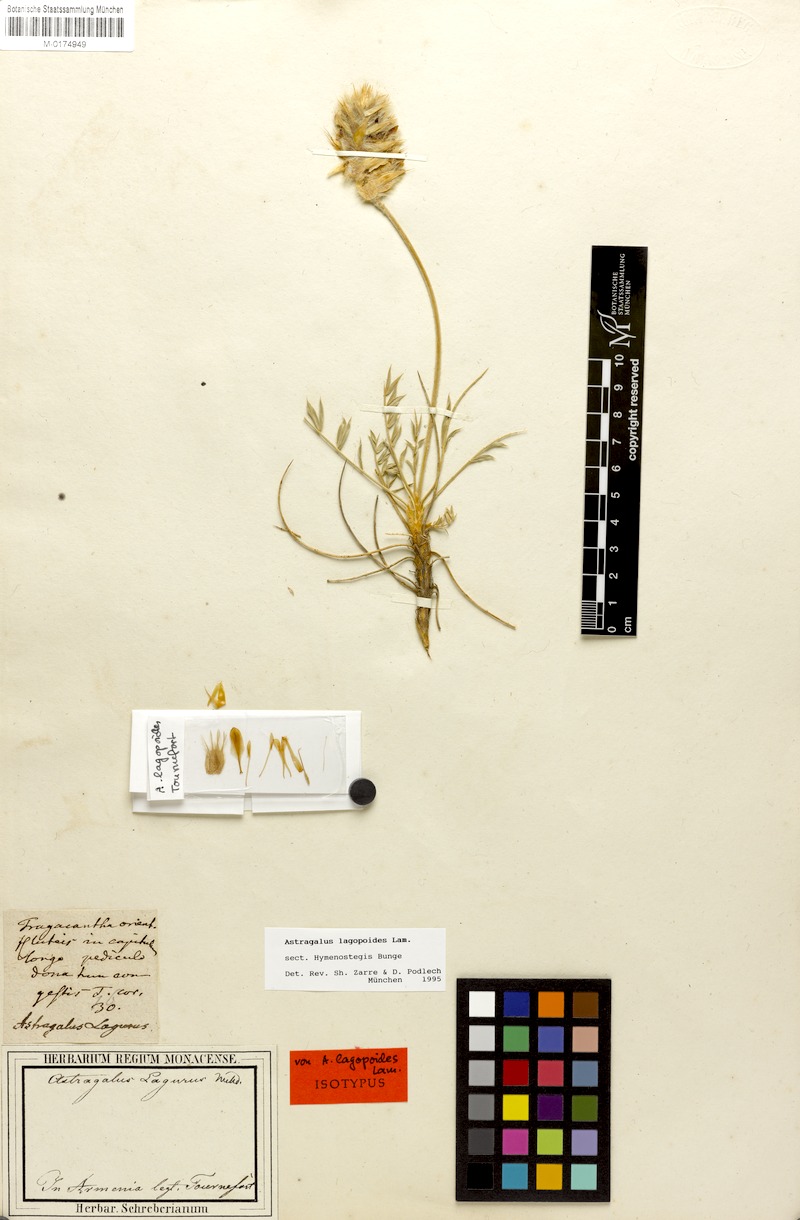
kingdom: Plantae
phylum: Tracheophyta
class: Magnoliopsida
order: Fabales
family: Fabaceae
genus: Astragalus
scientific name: Astragalus lagopoides
